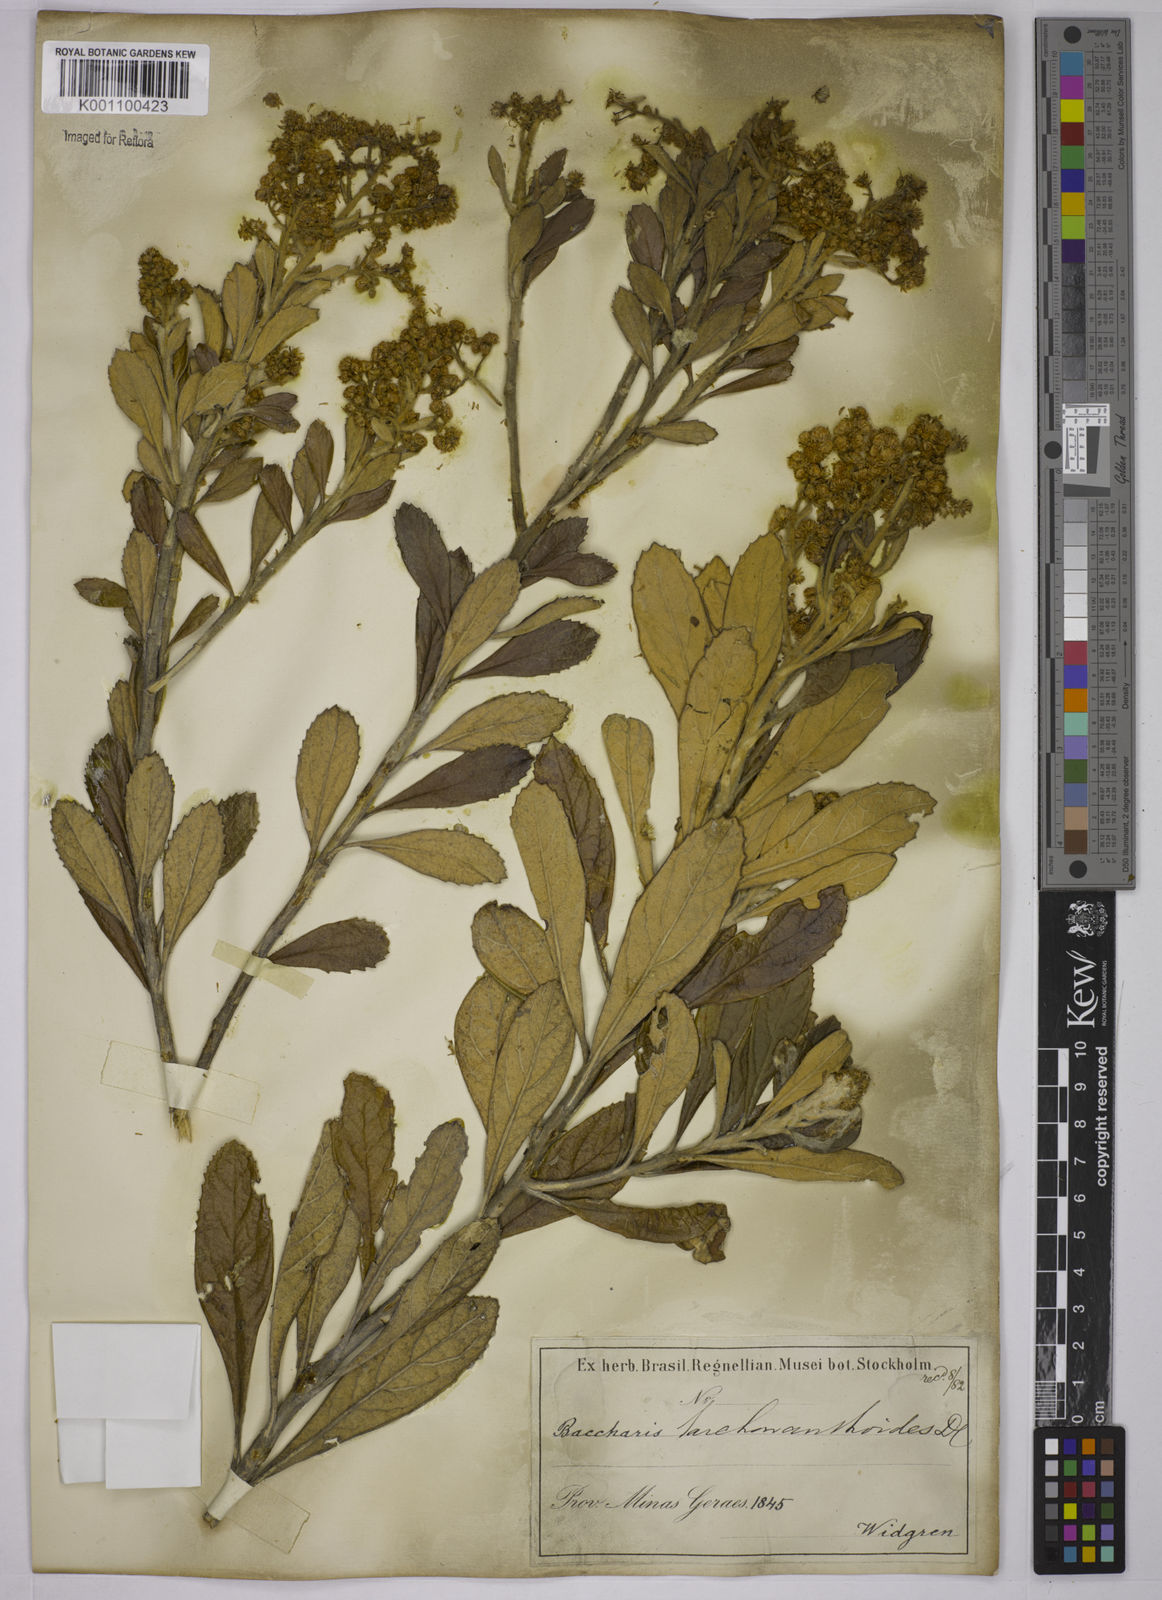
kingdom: Plantae
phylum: Tracheophyta
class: Magnoliopsida
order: Asterales
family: Asteraceae
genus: Baccharis
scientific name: Baccharis
